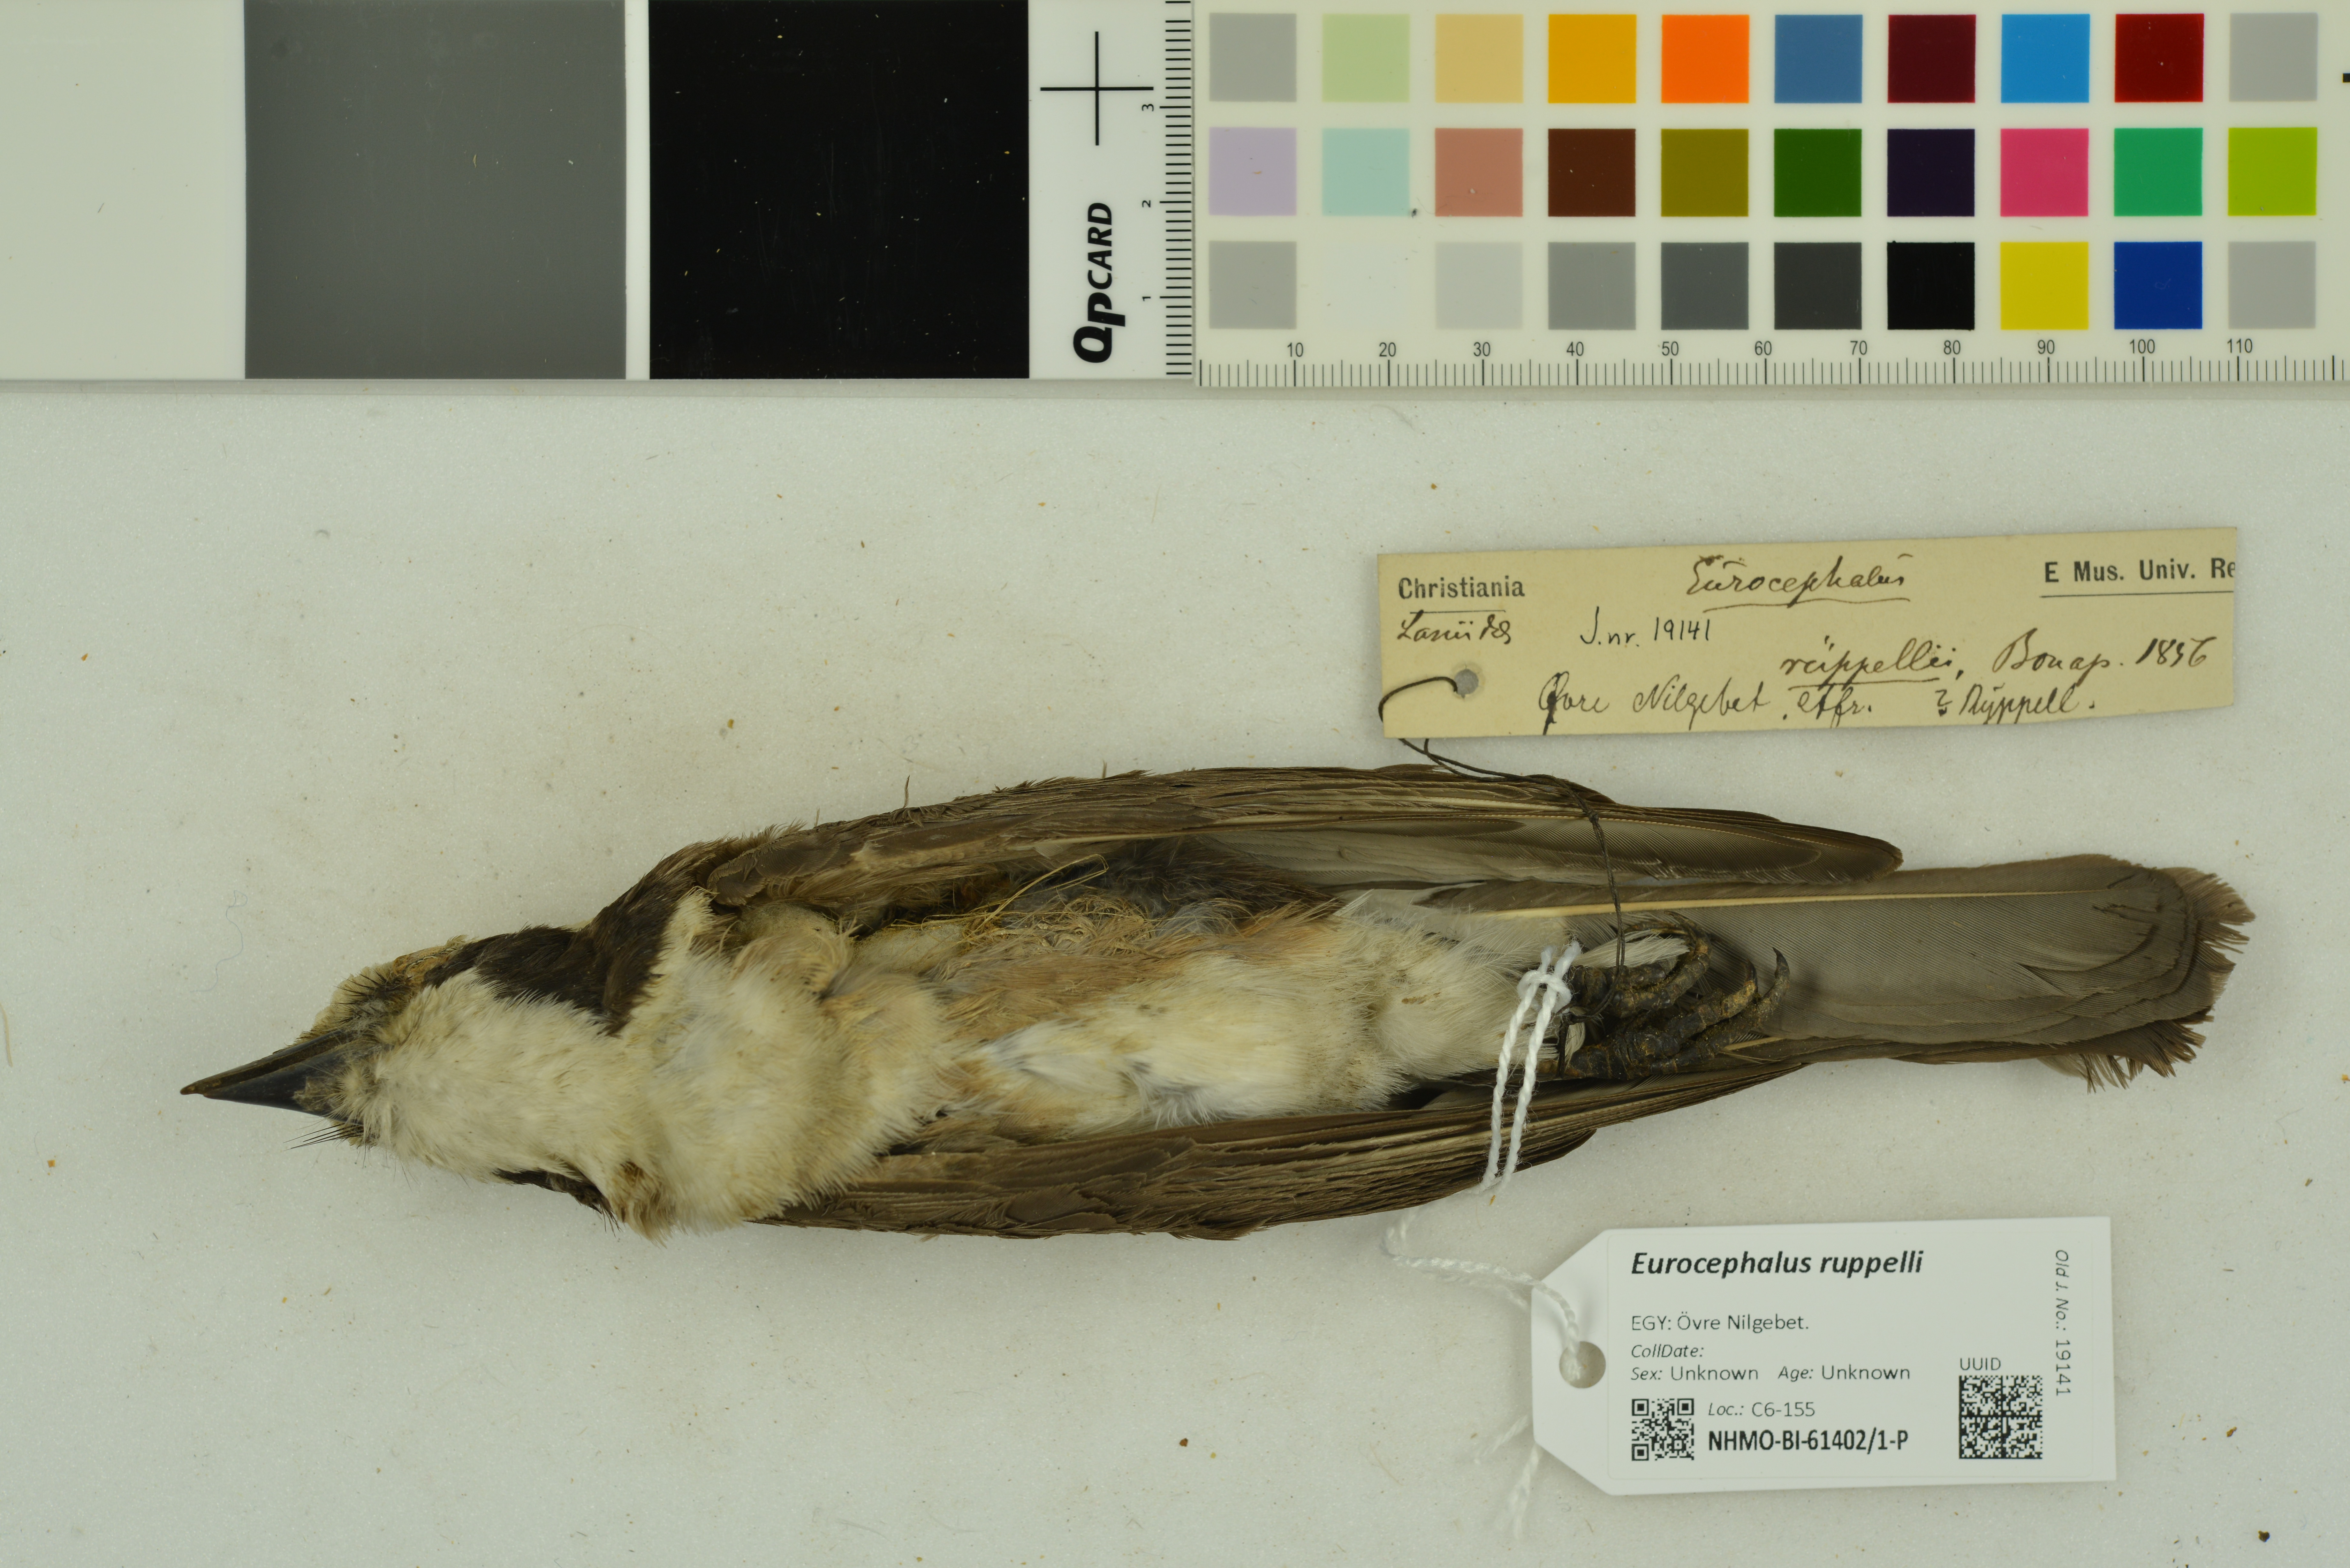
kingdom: Animalia
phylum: Chordata
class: Aves
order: Passeriformes
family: Laniidae
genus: Eurocephalus
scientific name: Eurocephalus ruppelli
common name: Northern white-crowned shrike
